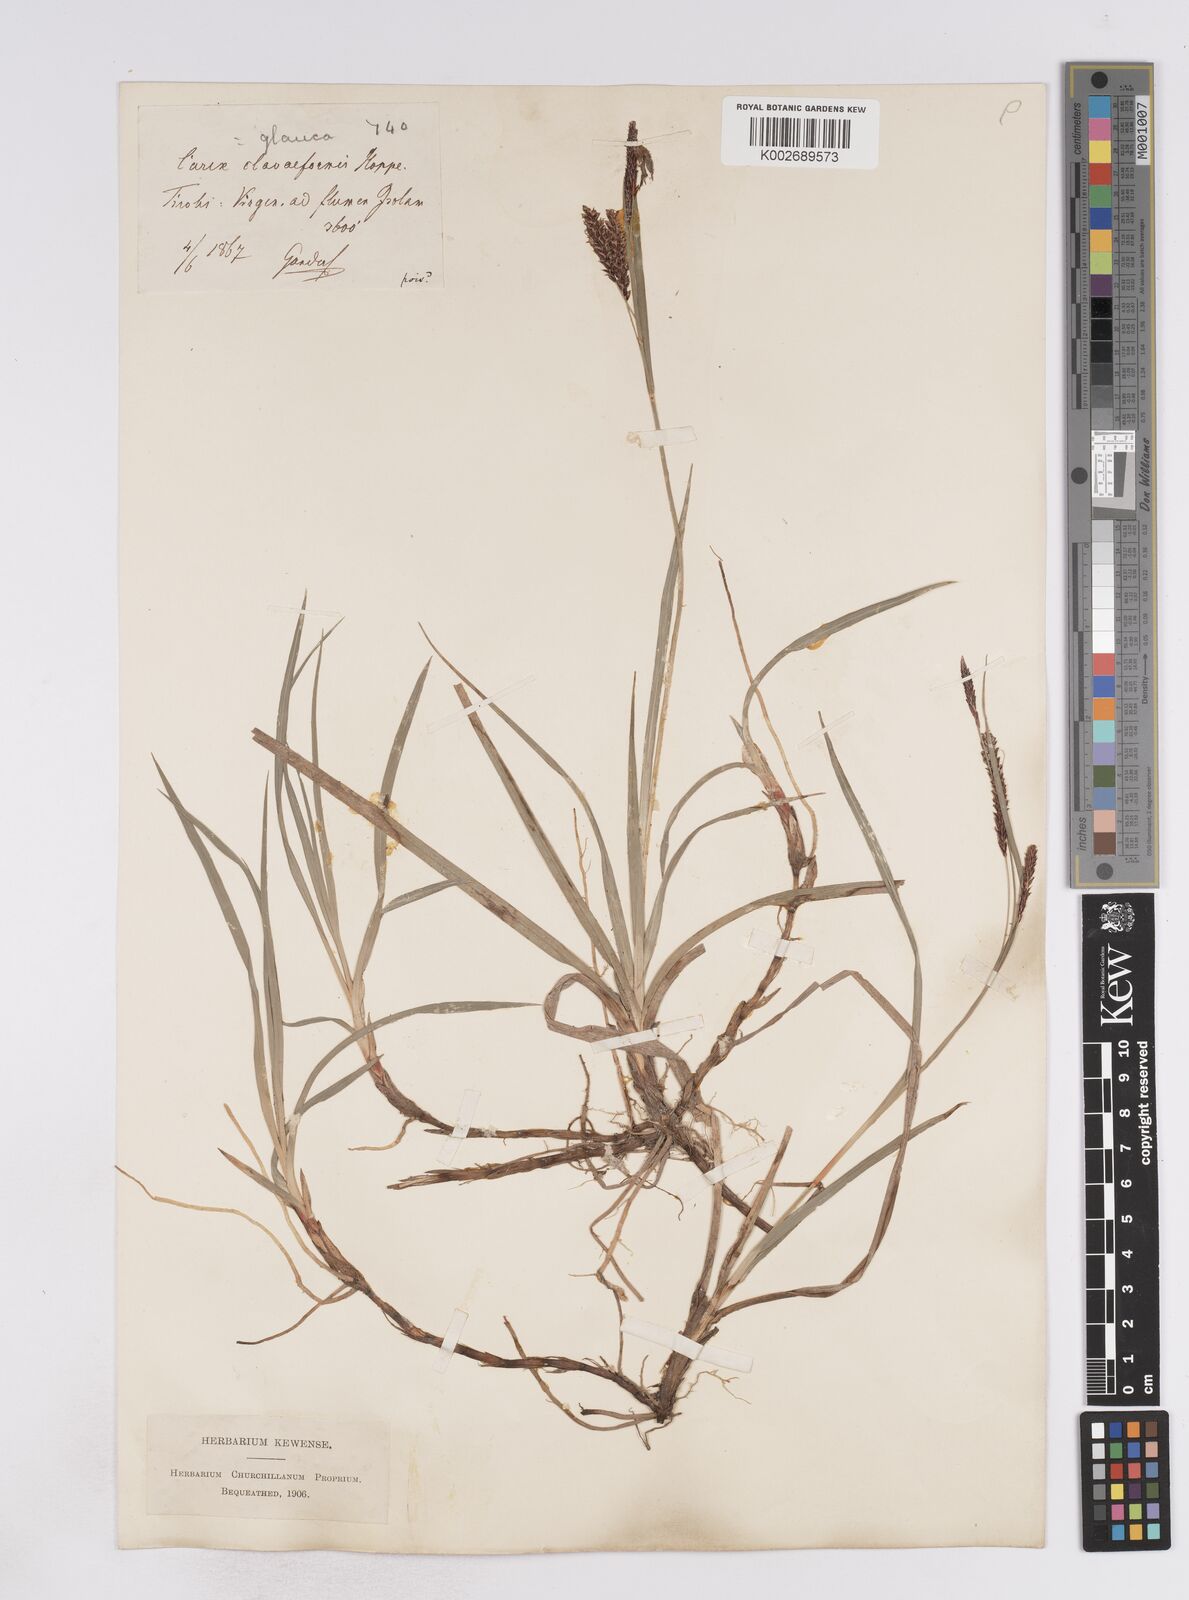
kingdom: Plantae
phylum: Tracheophyta
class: Liliopsida
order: Poales
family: Cyperaceae
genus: Carex
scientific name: Carex flacca
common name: Glaucous sedge
